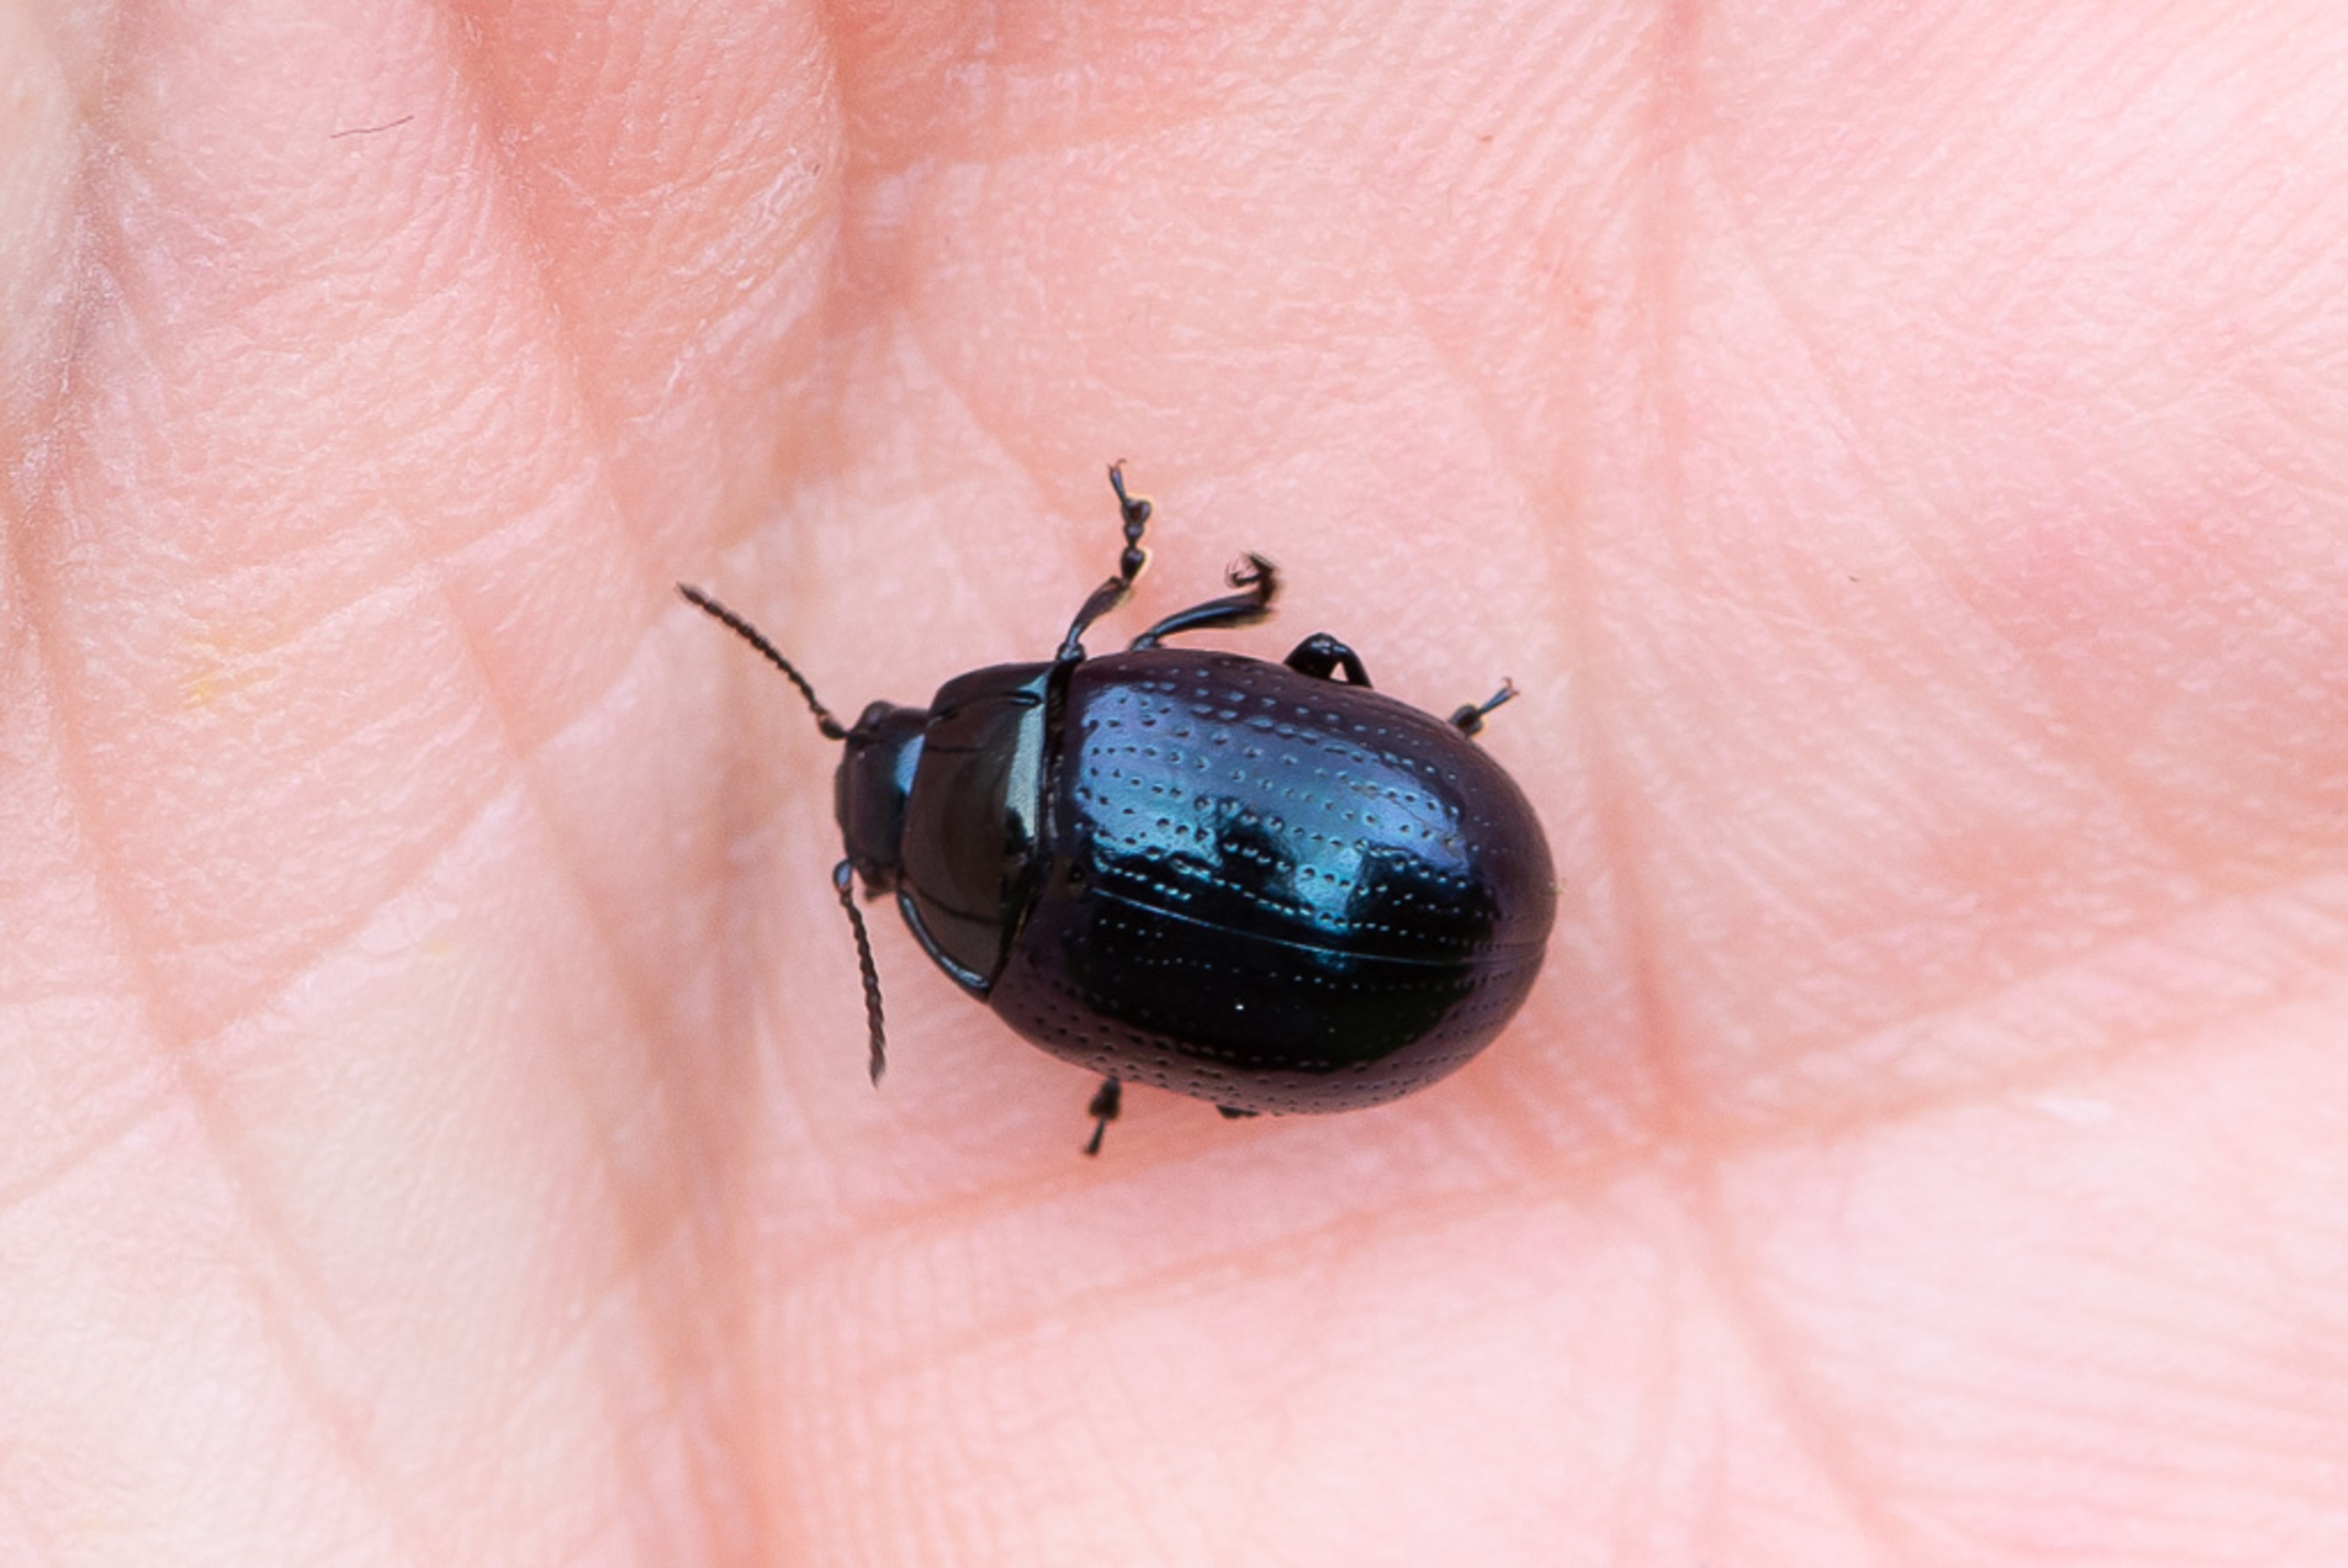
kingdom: Animalia
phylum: Arthropoda
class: Insecta
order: Coleoptera
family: Chrysomelidae
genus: Chrysolina
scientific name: Chrysolina oricalcia
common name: Rækkepunkteret guldbille
